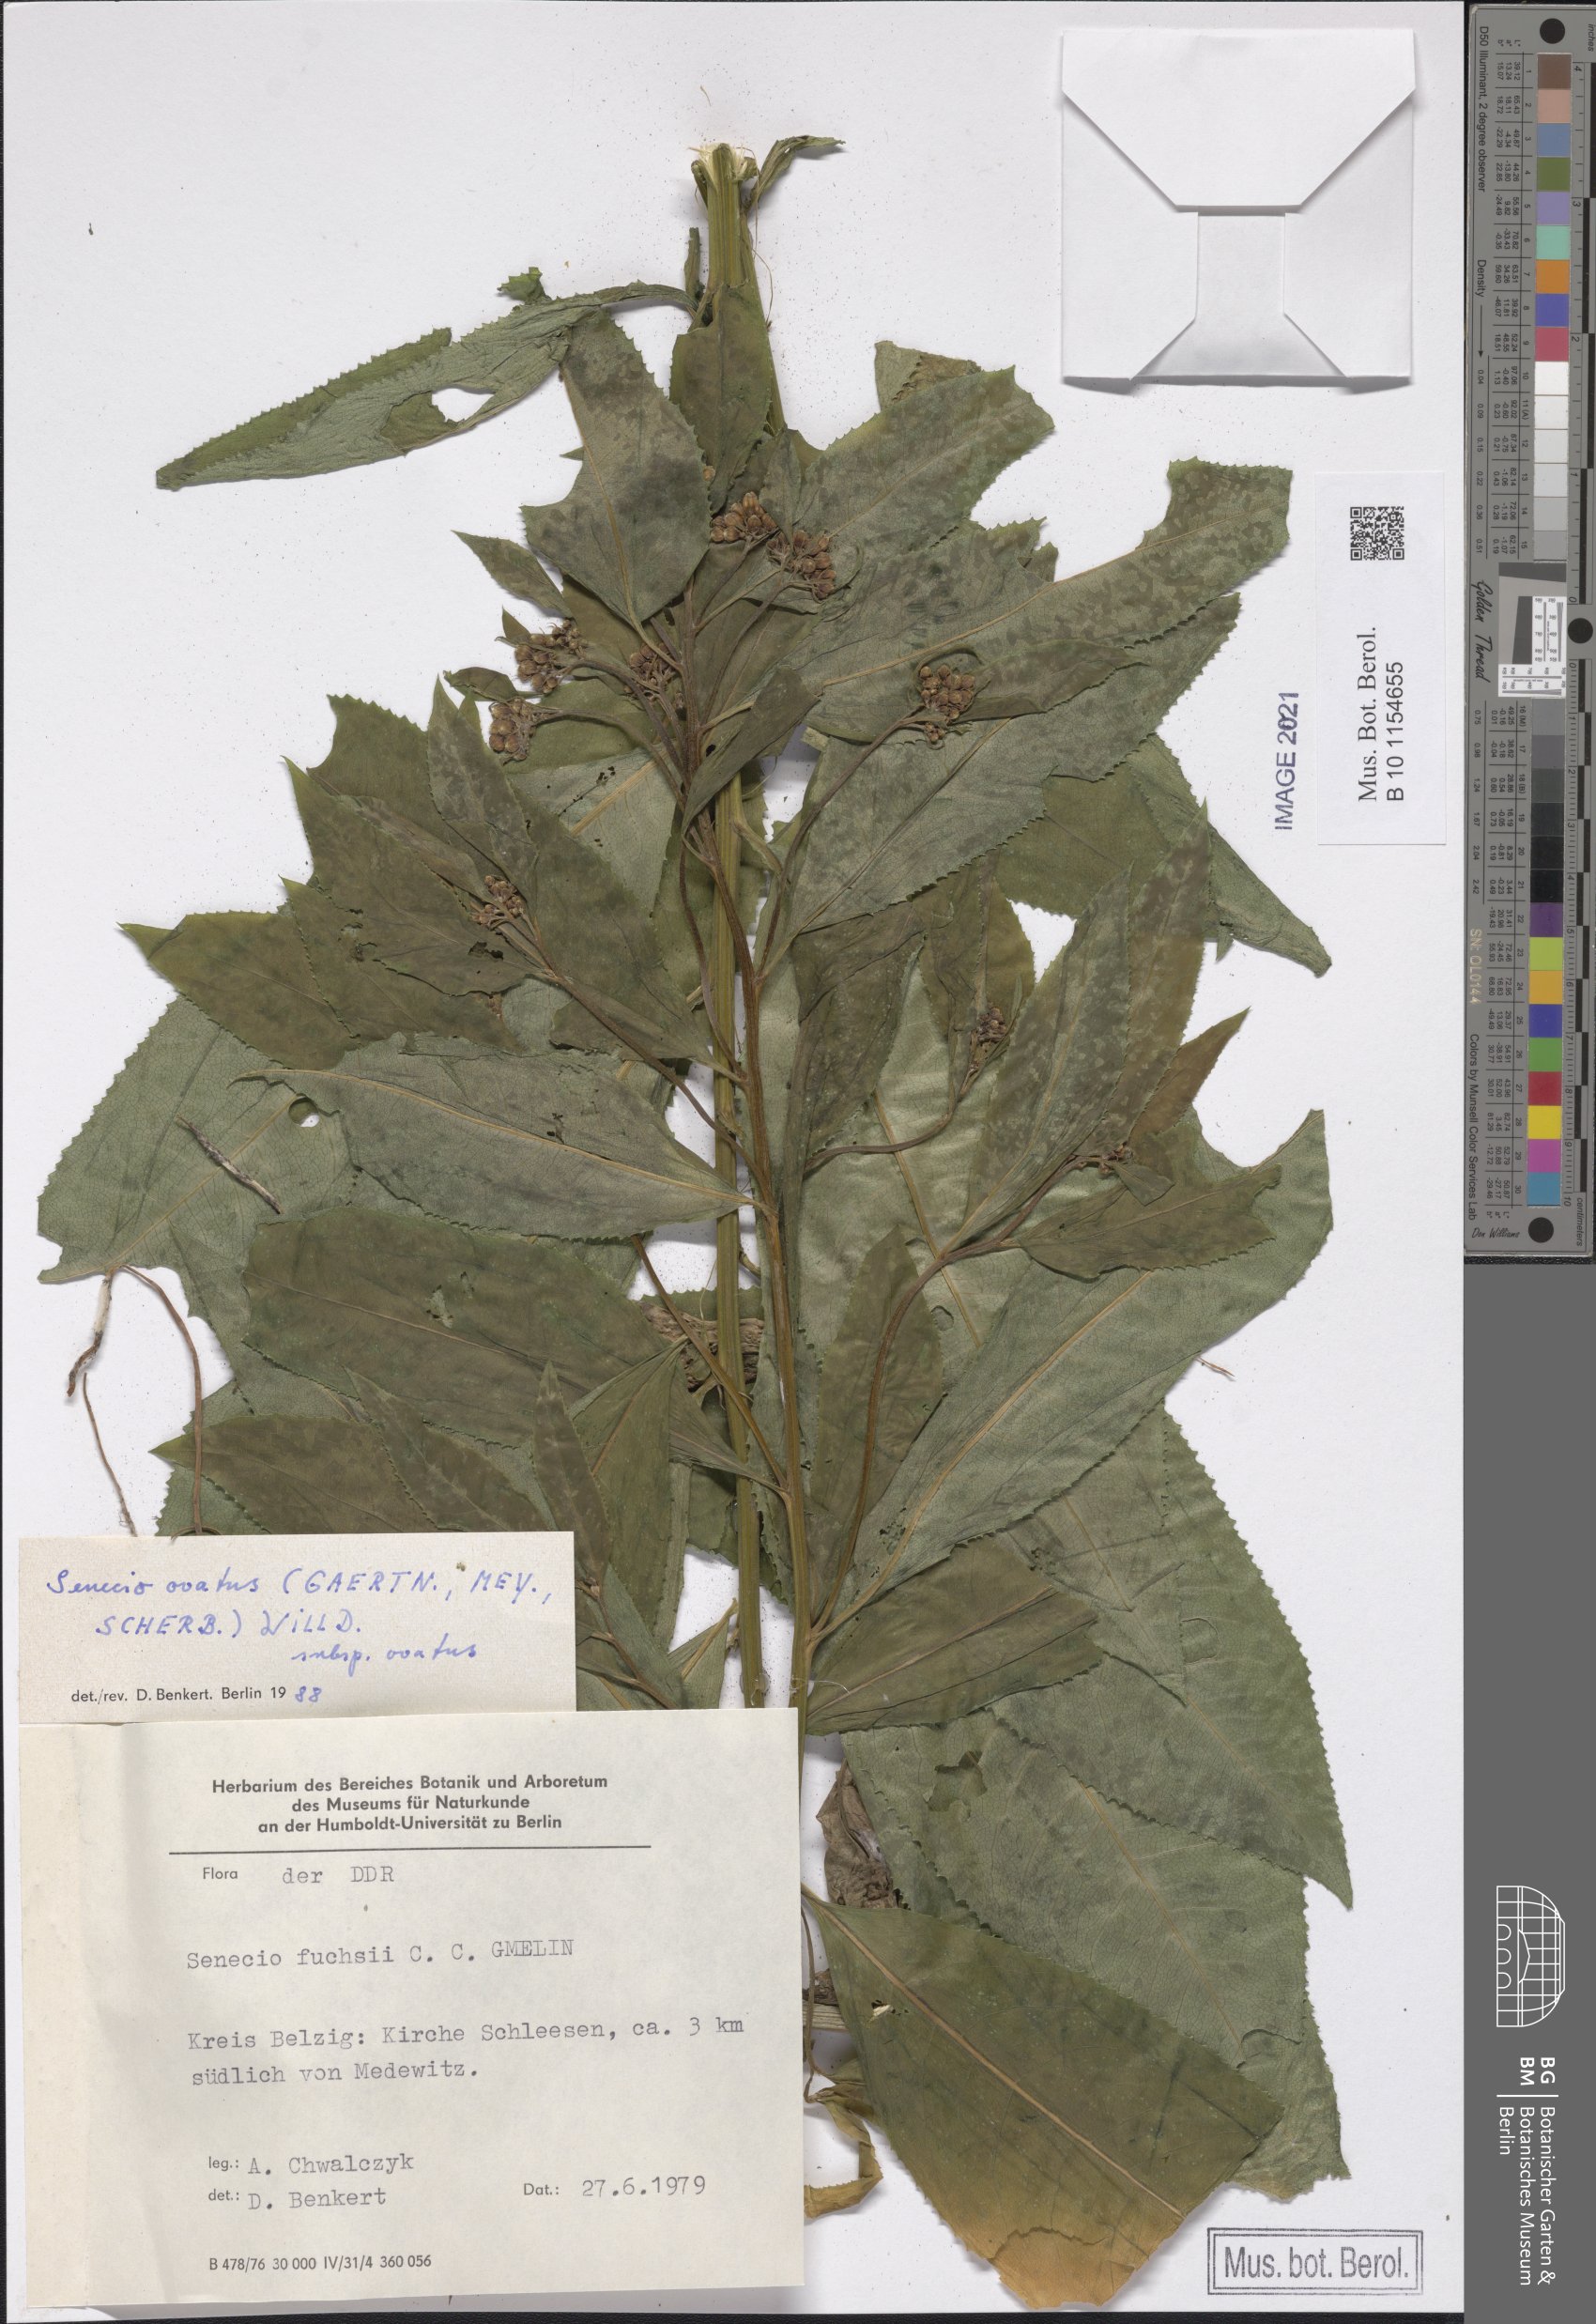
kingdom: Plantae
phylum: Tracheophyta
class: Magnoliopsida
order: Asterales
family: Asteraceae
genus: Senecio
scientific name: Senecio ovatus
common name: Wood ragwort
